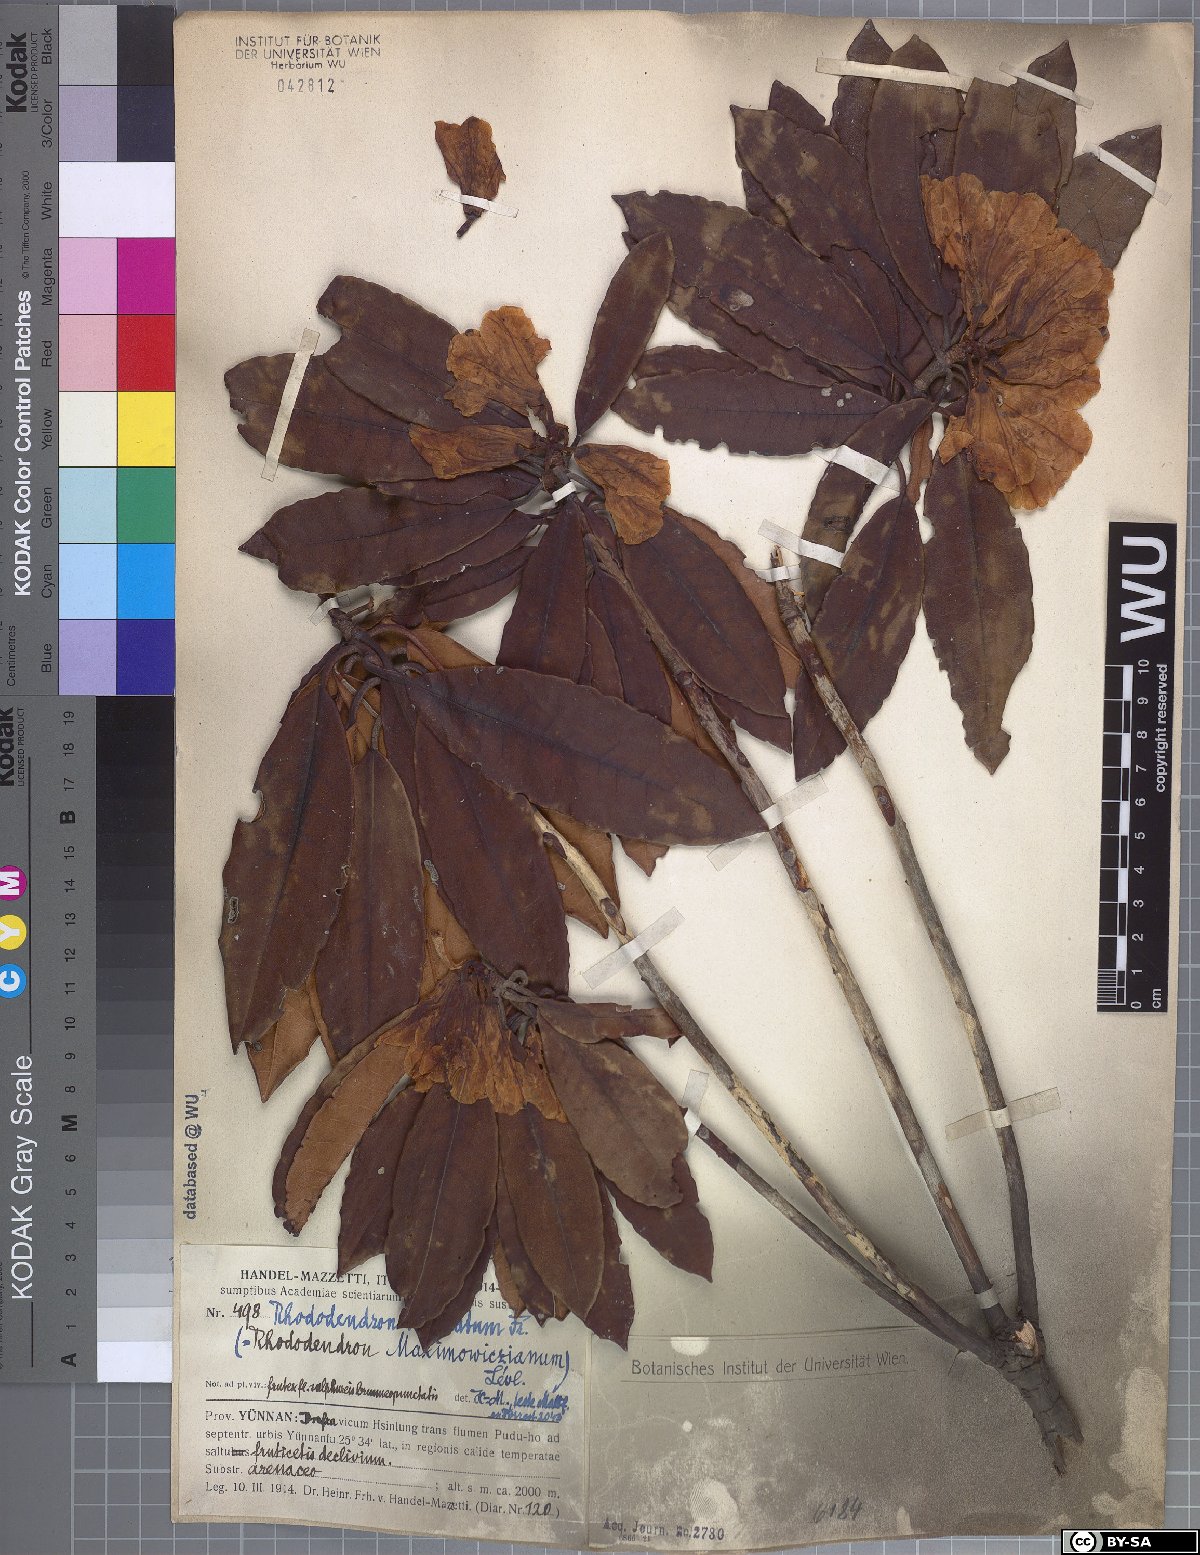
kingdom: Plantae
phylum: Tracheophyta
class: Magnoliopsida
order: Ericales
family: Ericaceae
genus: Rhododendron
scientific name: Rhododendron irroratum
